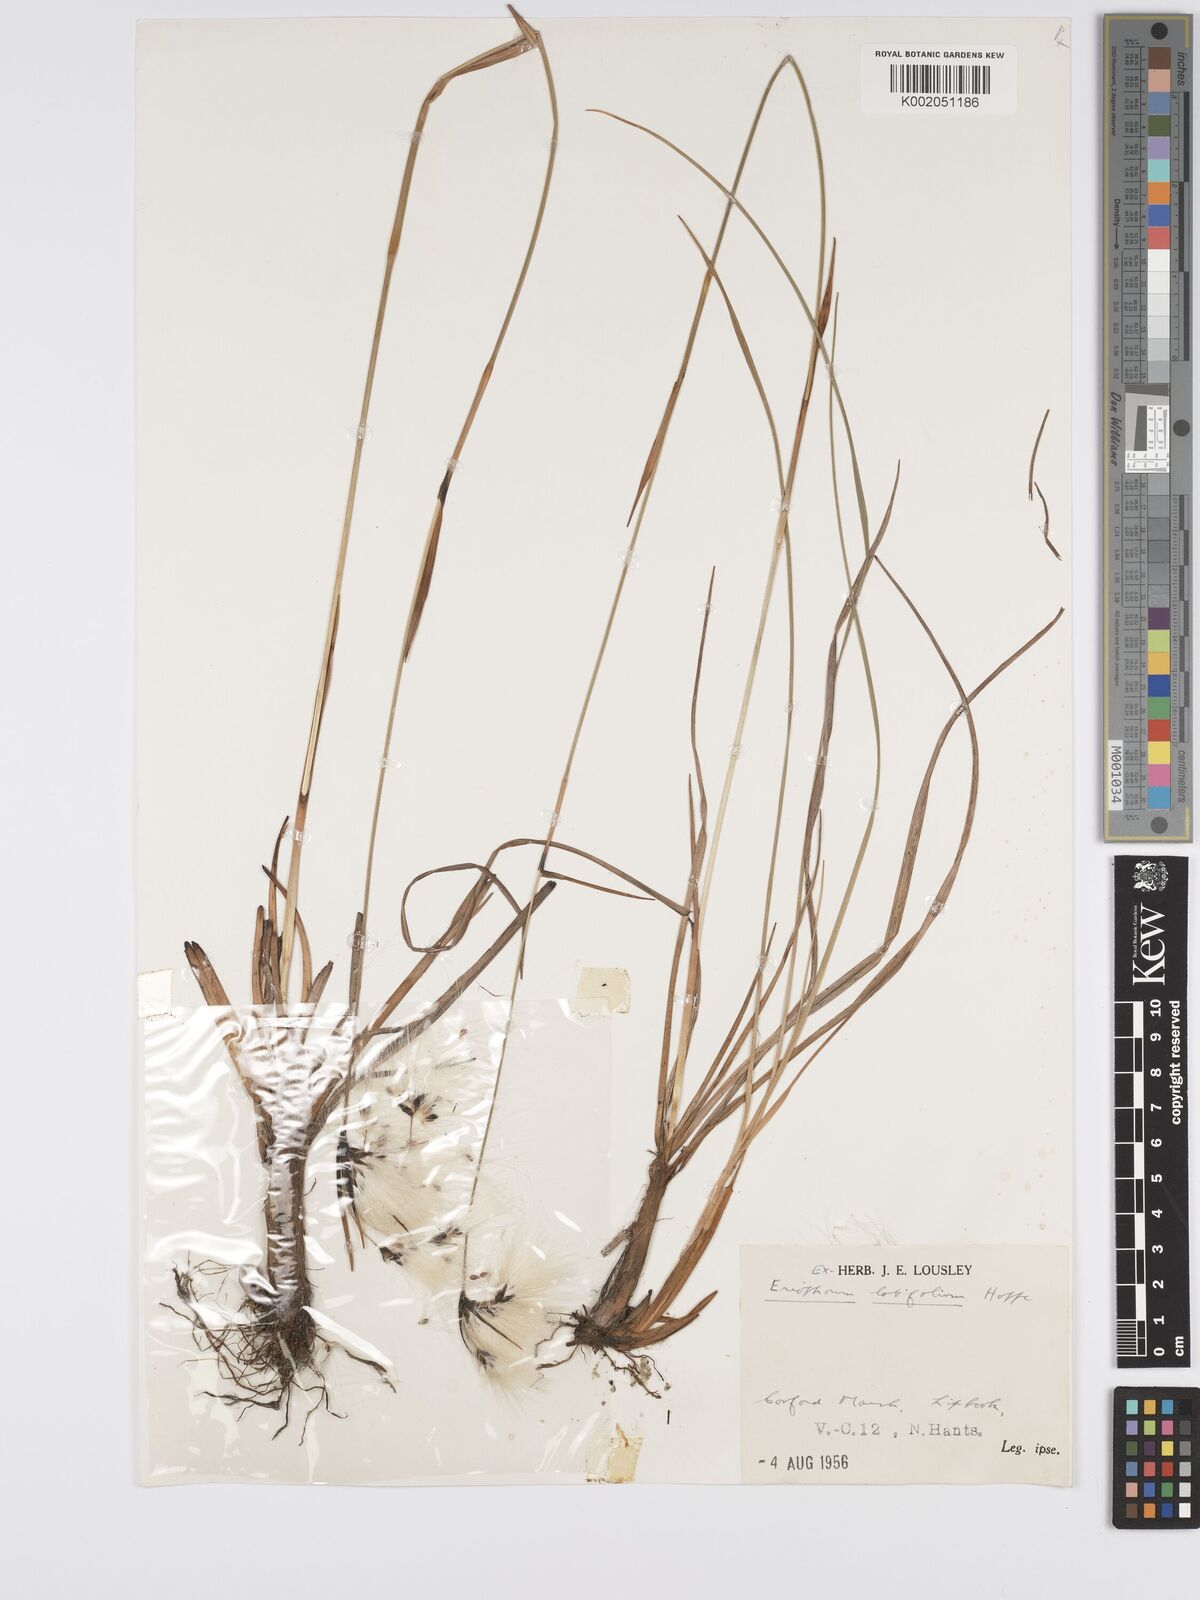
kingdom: Plantae
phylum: Tracheophyta
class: Liliopsida
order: Poales
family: Cyperaceae
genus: Eriophorum
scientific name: Eriophorum latifolium
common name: Broad-leaved cottongrass
